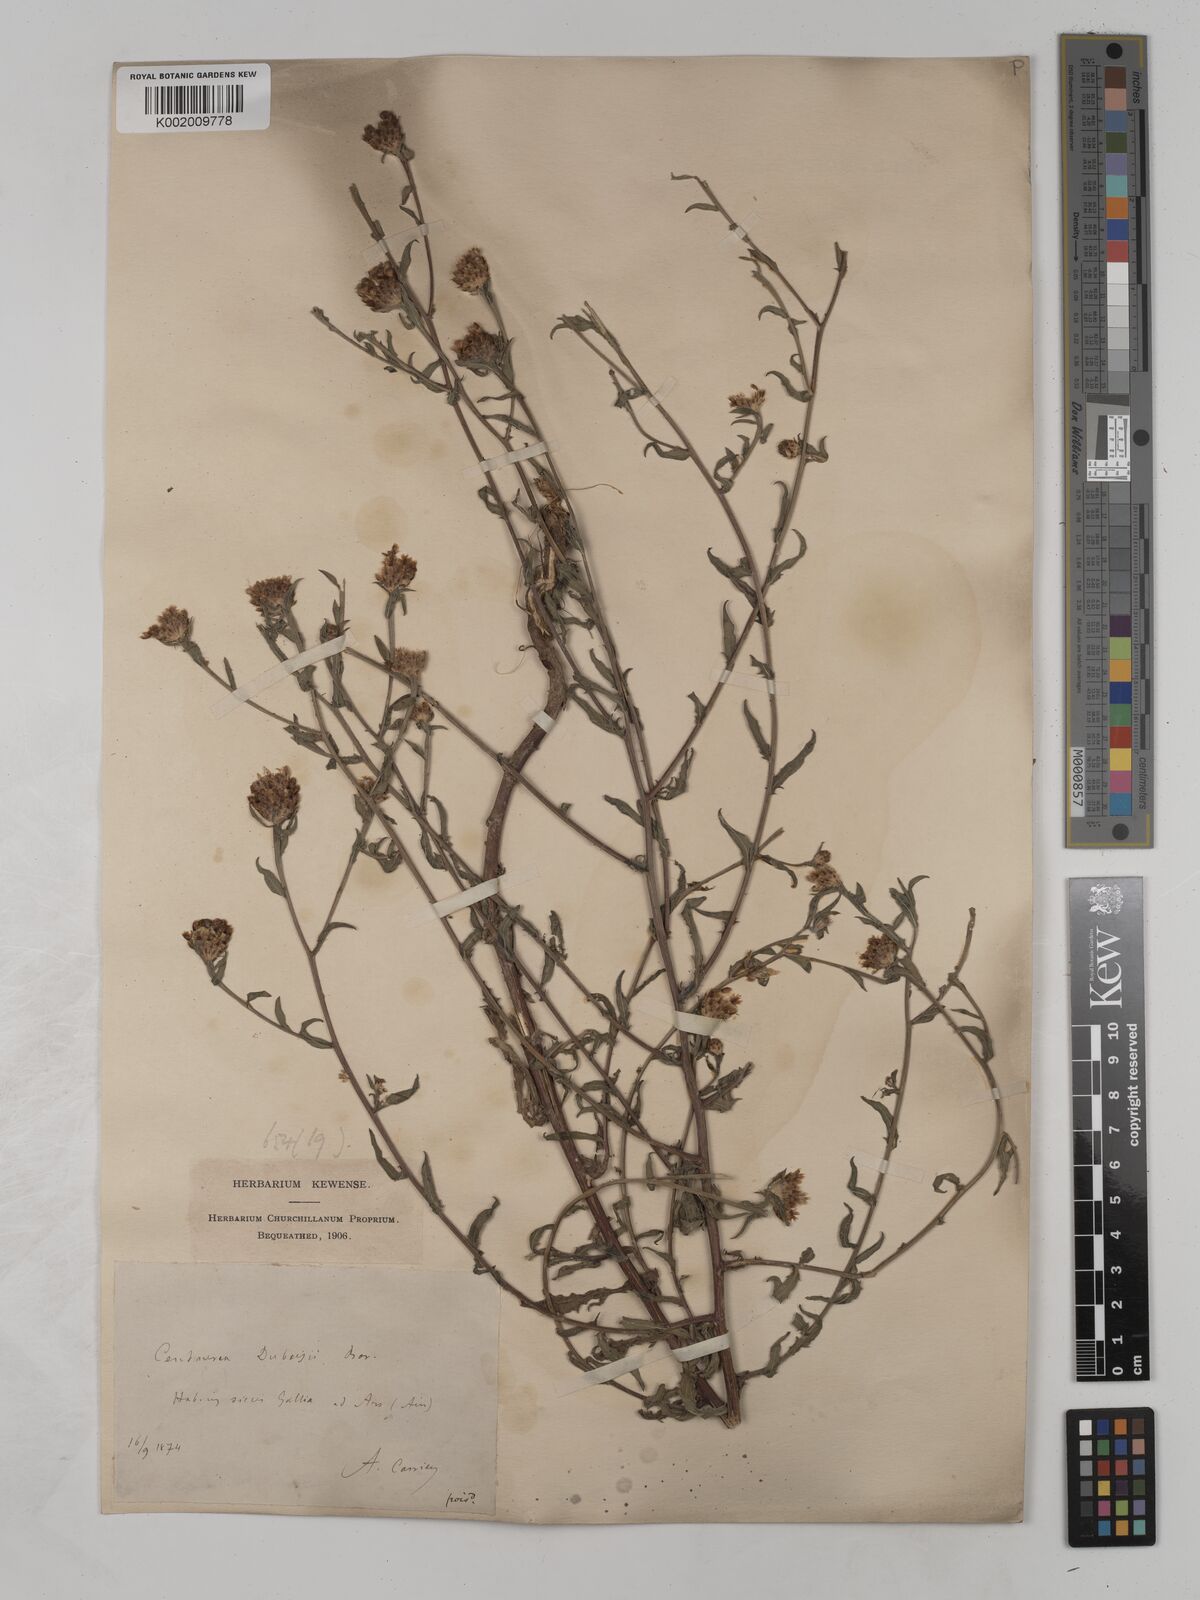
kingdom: Plantae
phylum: Tracheophyta
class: Magnoliopsida
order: Asterales
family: Asteraceae
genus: Centaurea
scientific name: Centaurea timbalii
